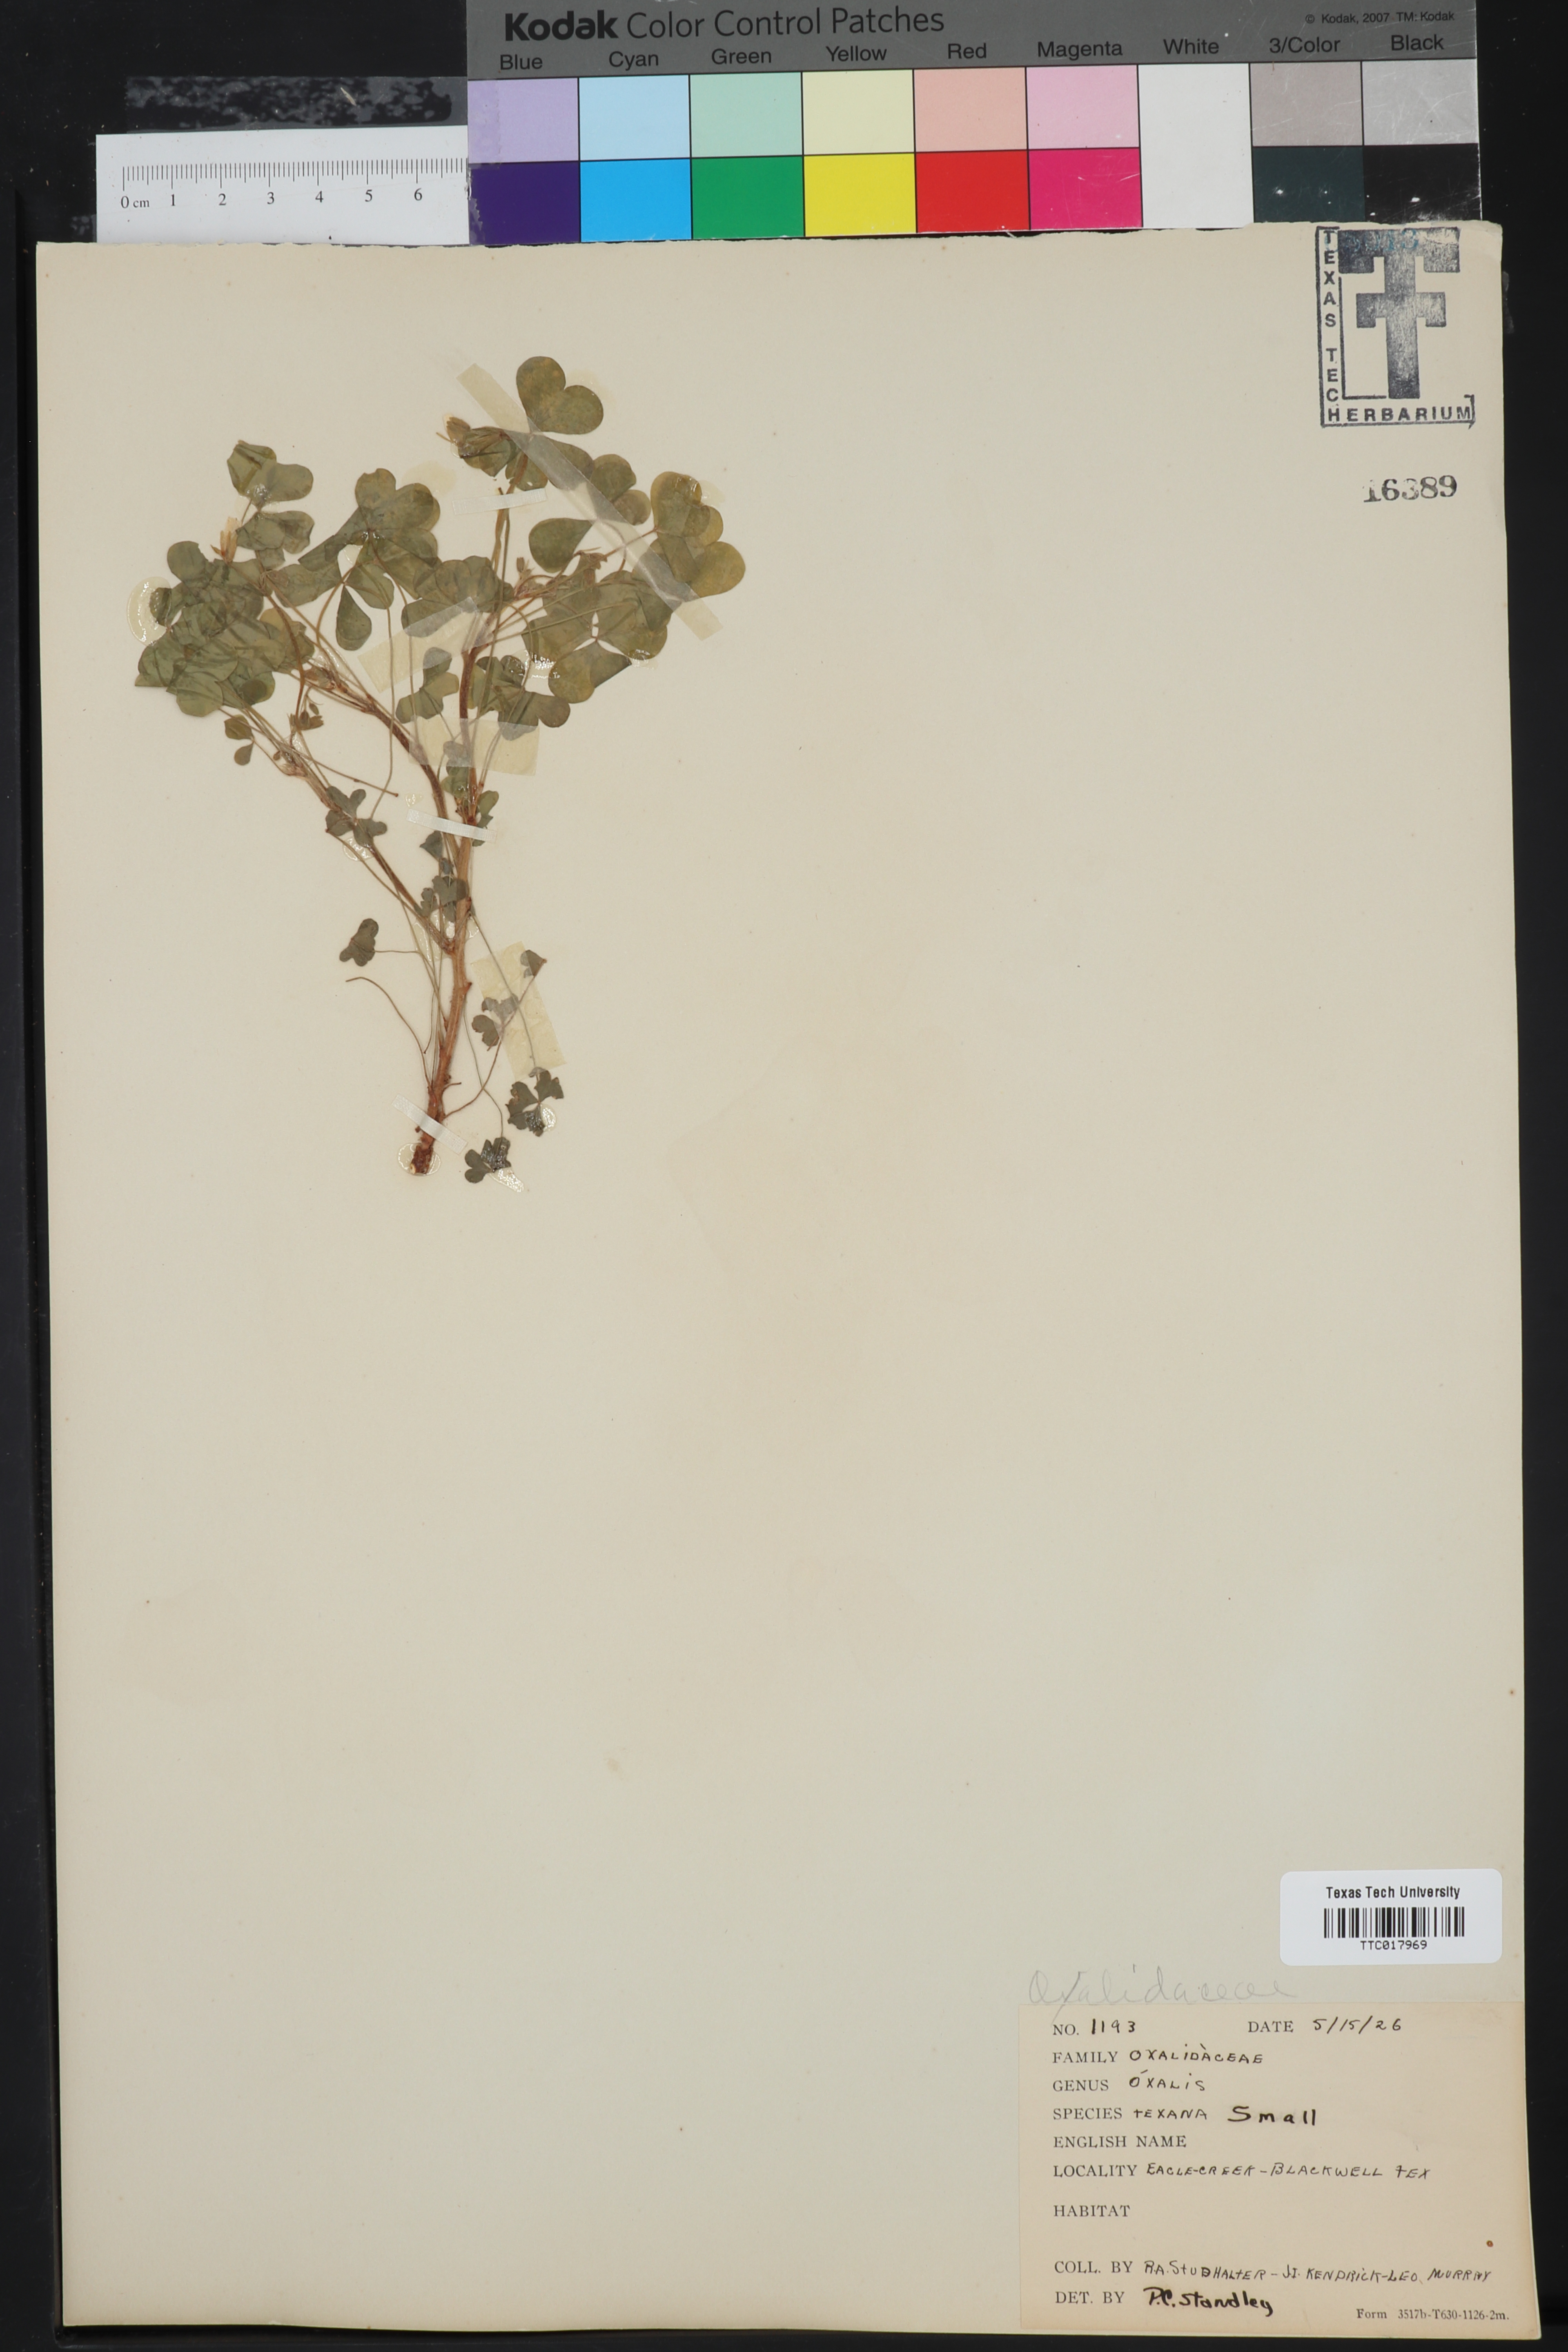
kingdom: Plantae
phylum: Tracheophyta
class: Magnoliopsida
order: Oxalidales
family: Oxalidaceae
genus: Oxalis
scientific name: Oxalis texana
